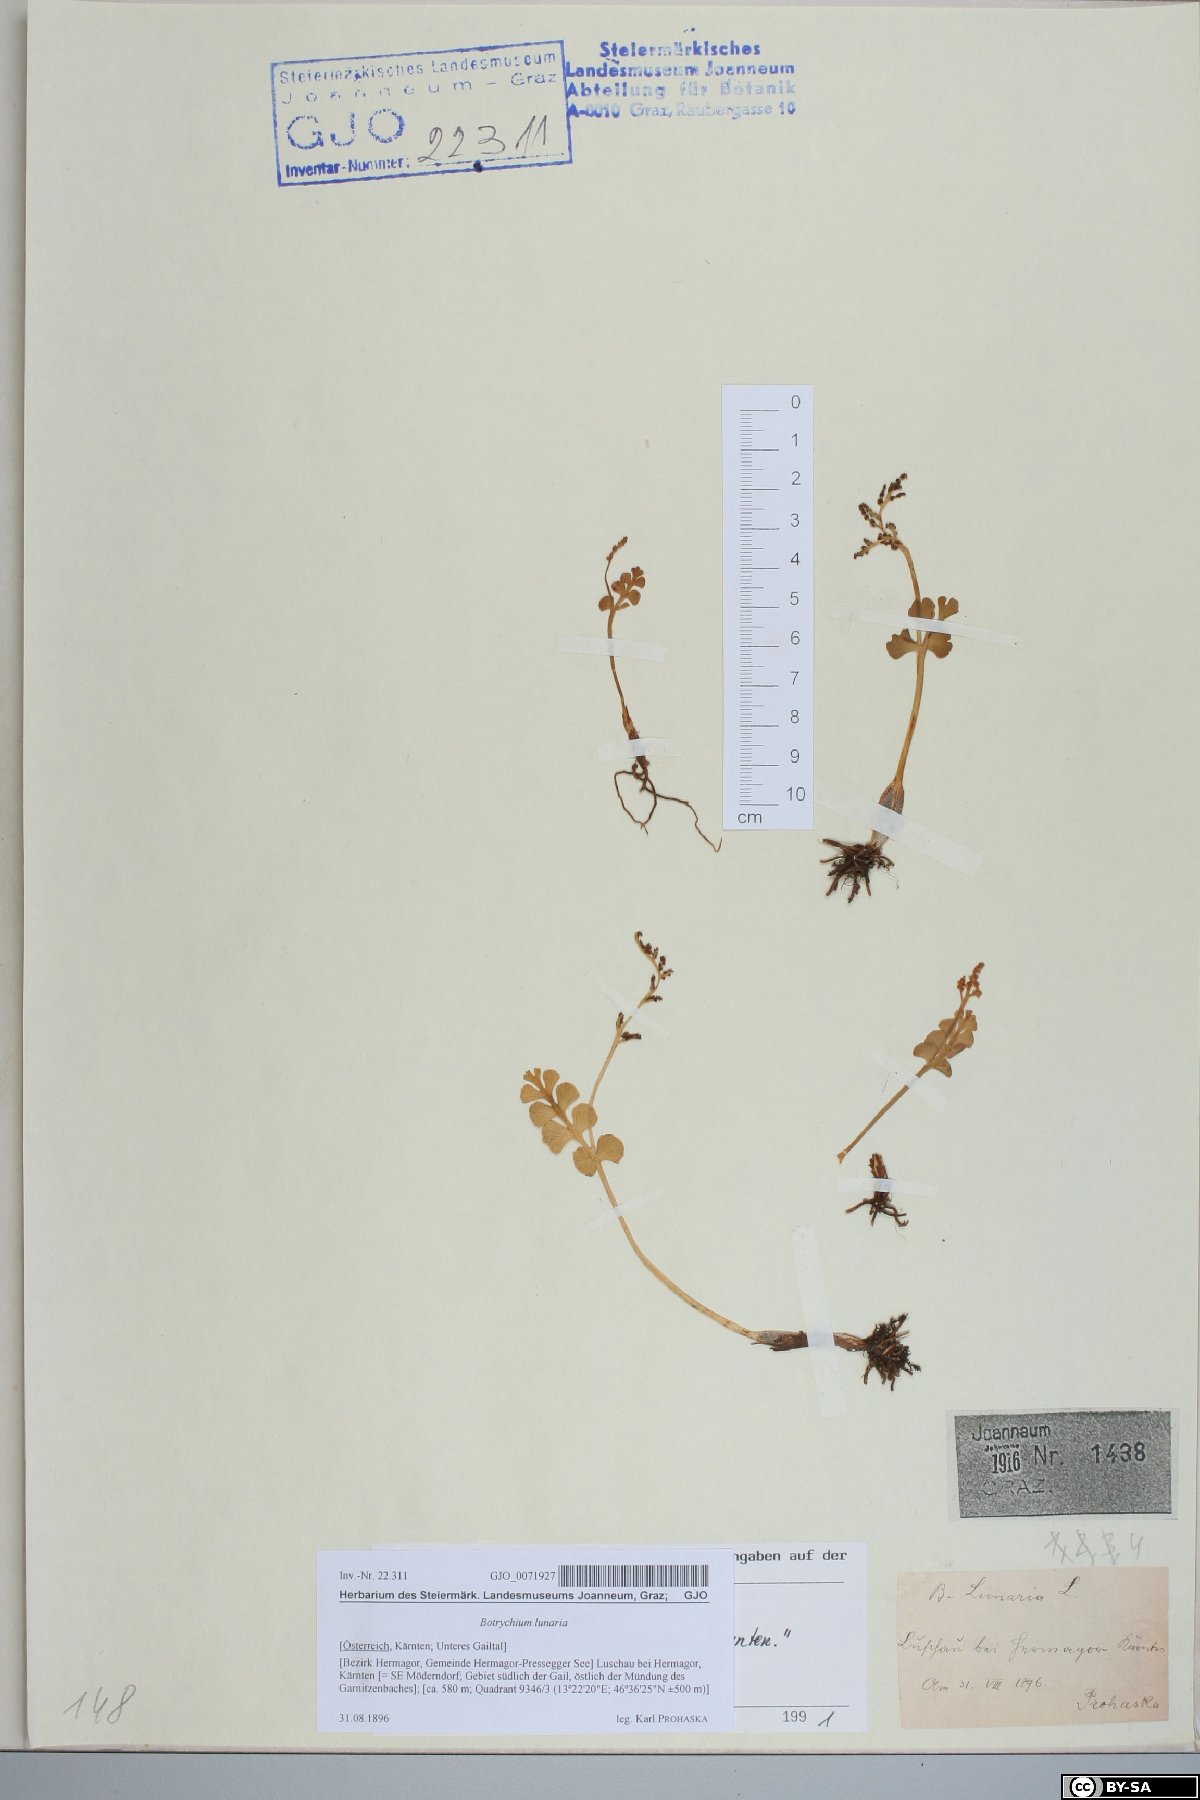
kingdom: Plantae
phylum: Tracheophyta
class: Polypodiopsida
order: Ophioglossales
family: Ophioglossaceae
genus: Botrychium
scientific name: Botrychium lunaria
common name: Moonwort
